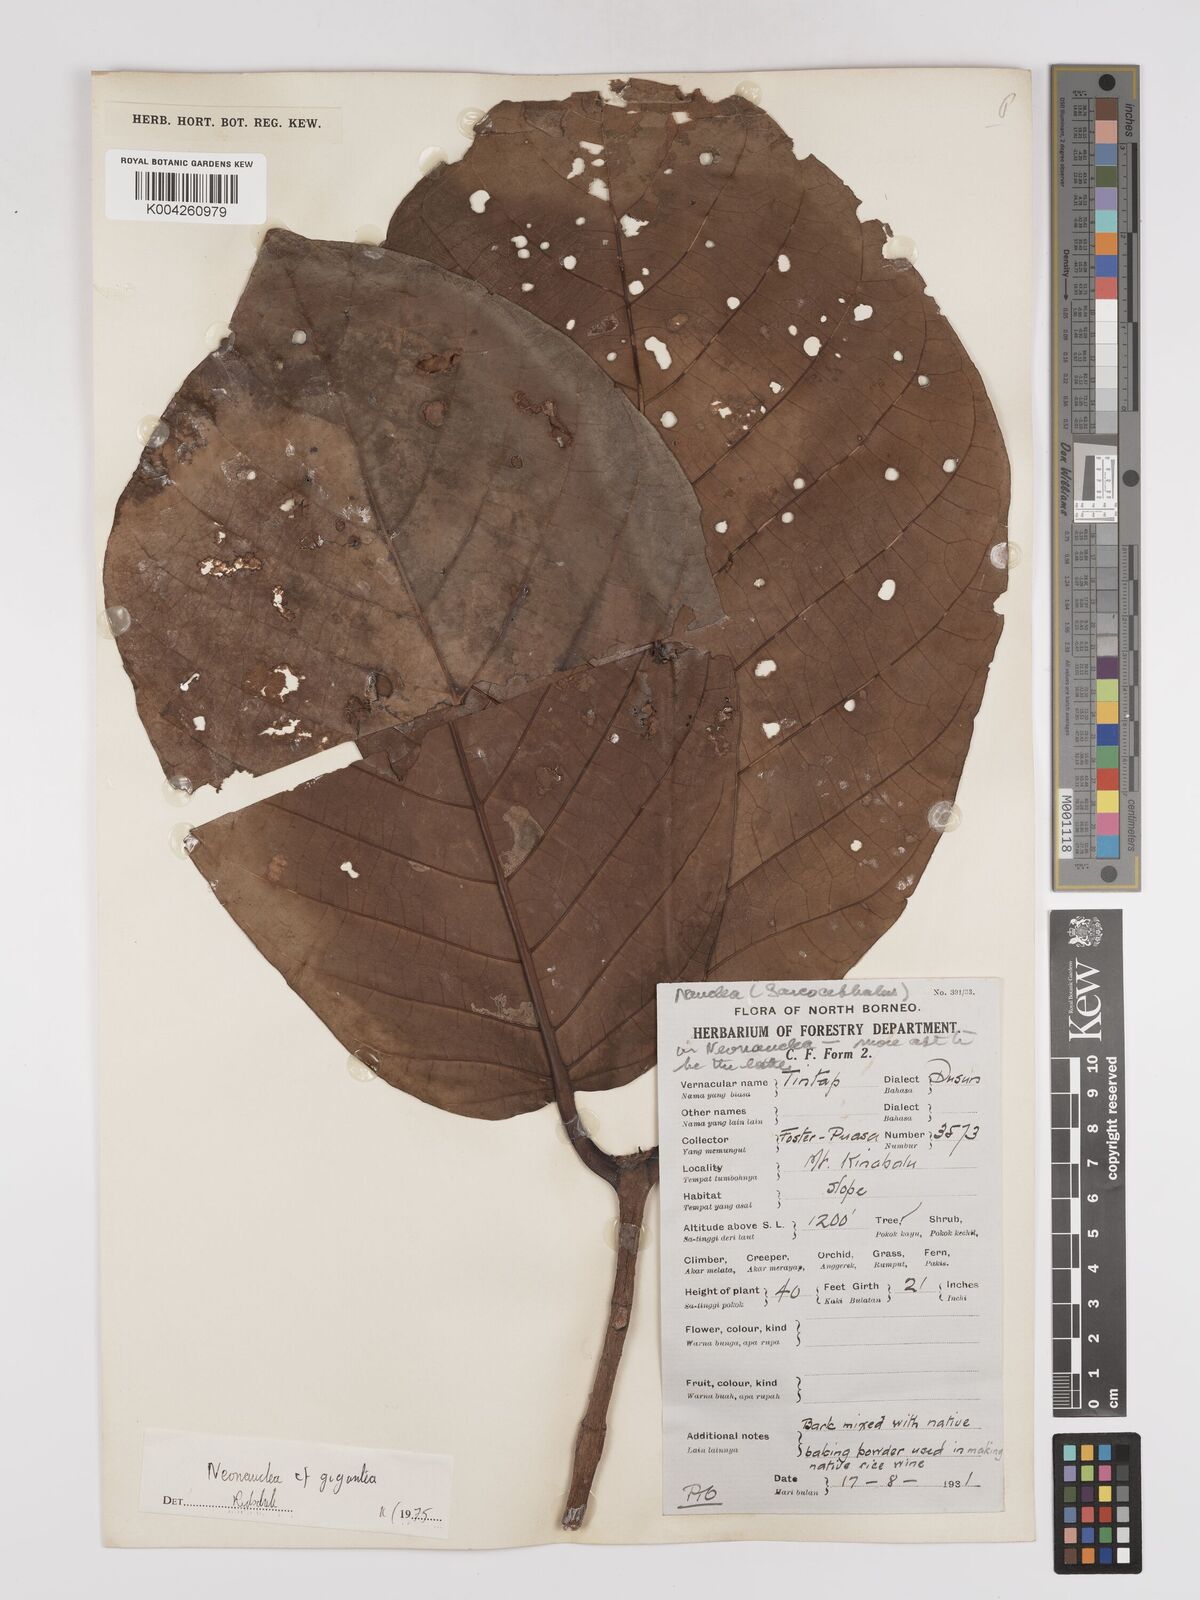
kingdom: Plantae
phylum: Tracheophyta
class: Magnoliopsida
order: Gentianales
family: Rubiaceae
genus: Neonauclea
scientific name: Neonauclea gigantea
